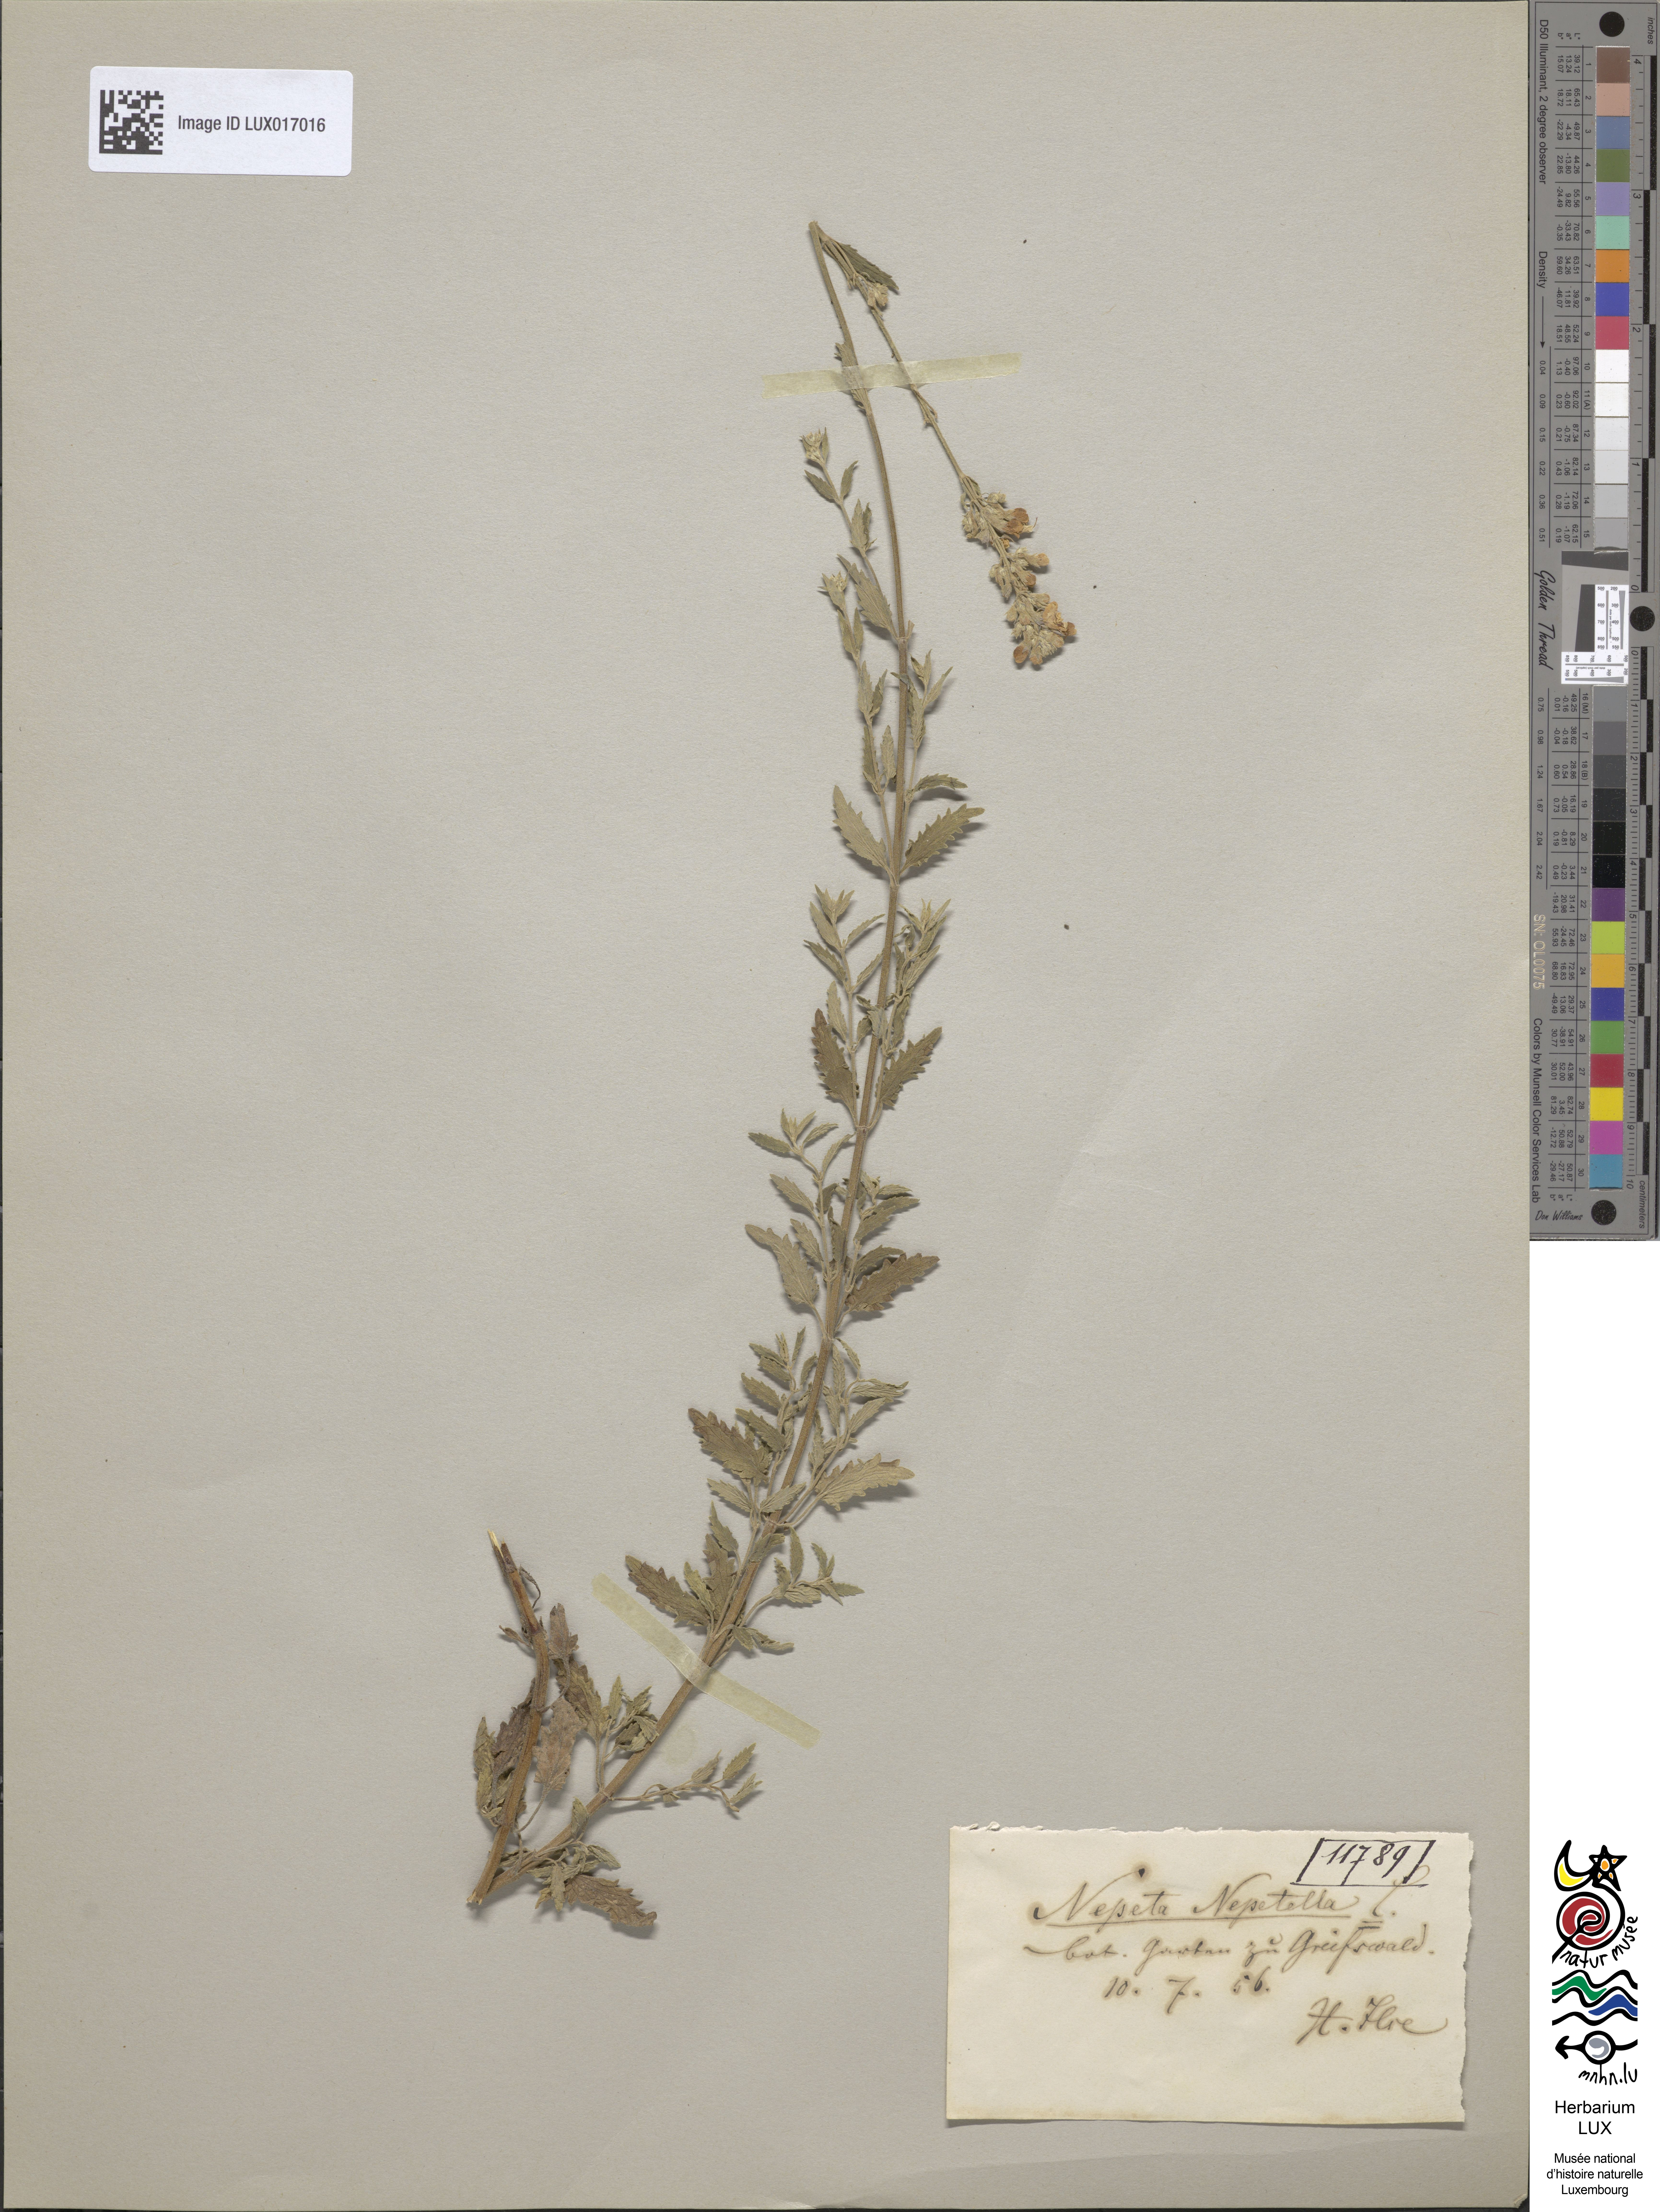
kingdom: Plantae
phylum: Tracheophyta
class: Magnoliopsida
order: Lamiales
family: Lamiaceae
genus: Nepeta
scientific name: Nepeta nepetella
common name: Lesser catmint
